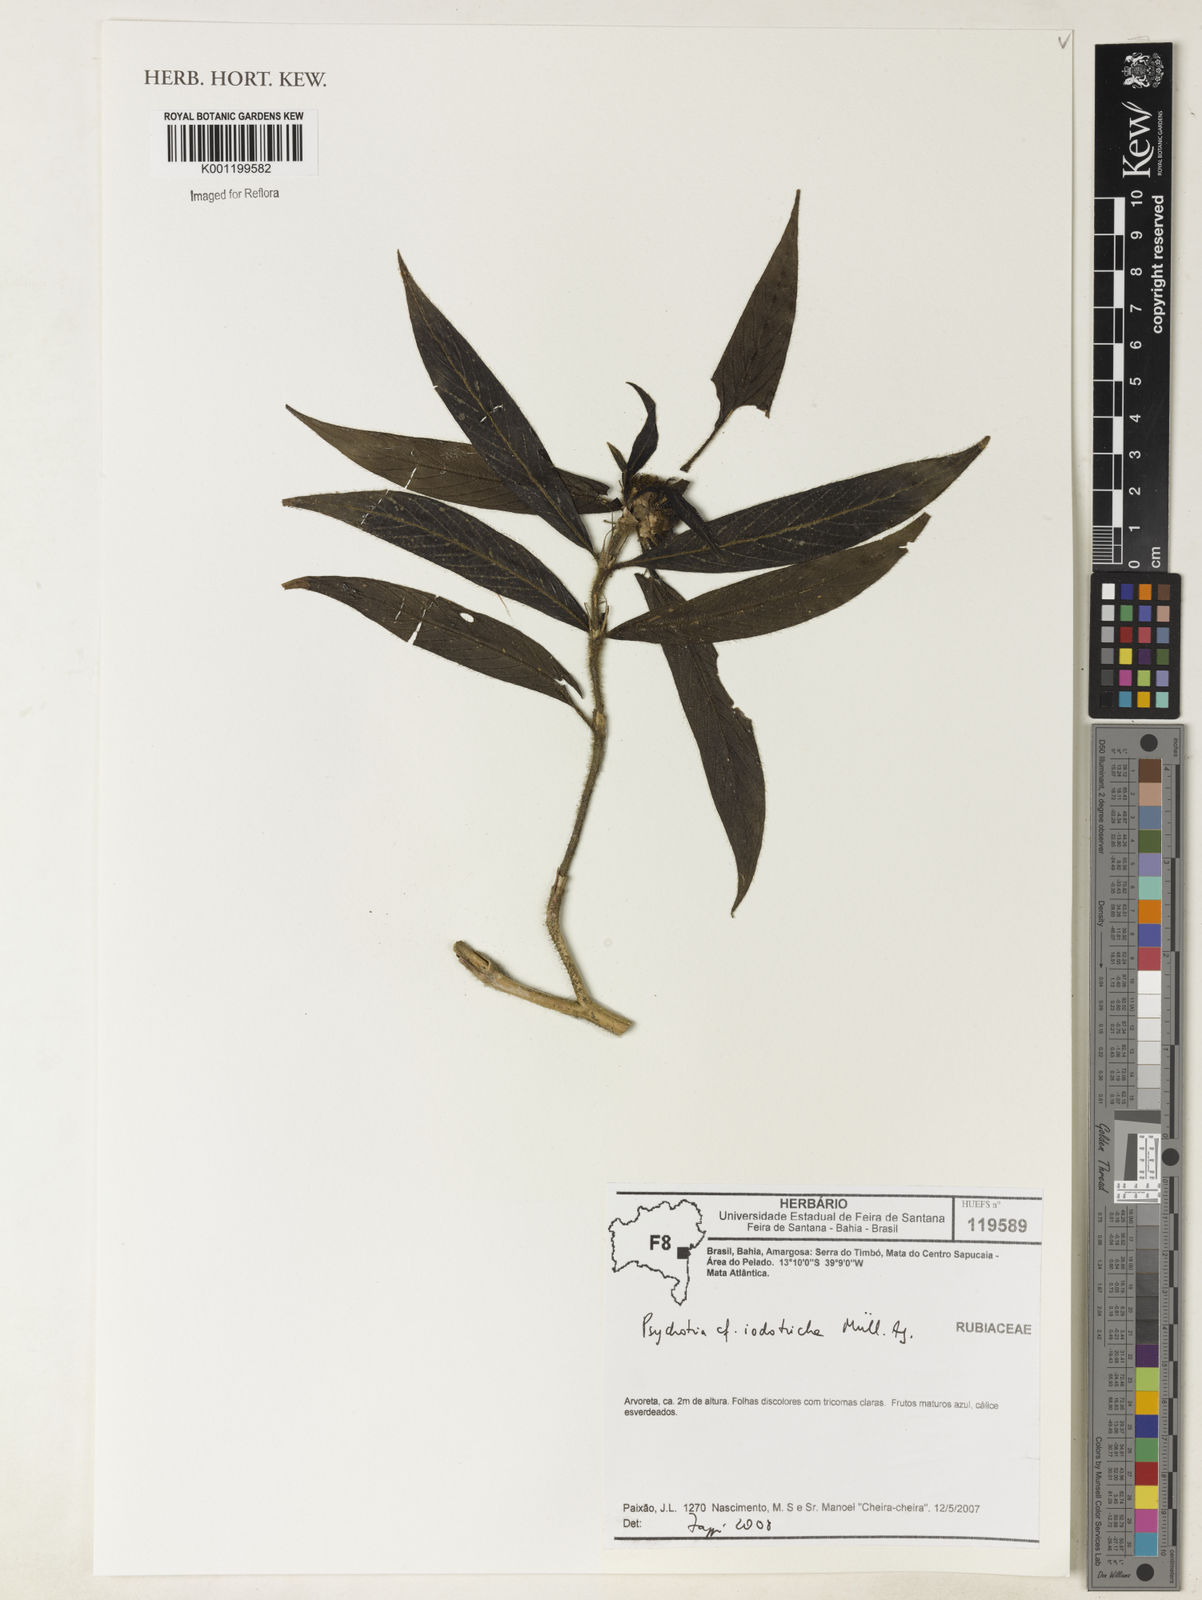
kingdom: Plantae
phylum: Tracheophyta
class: Magnoliopsida
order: Gentianales
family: Rubiaceae
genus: Psychotria
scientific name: Psychotria
